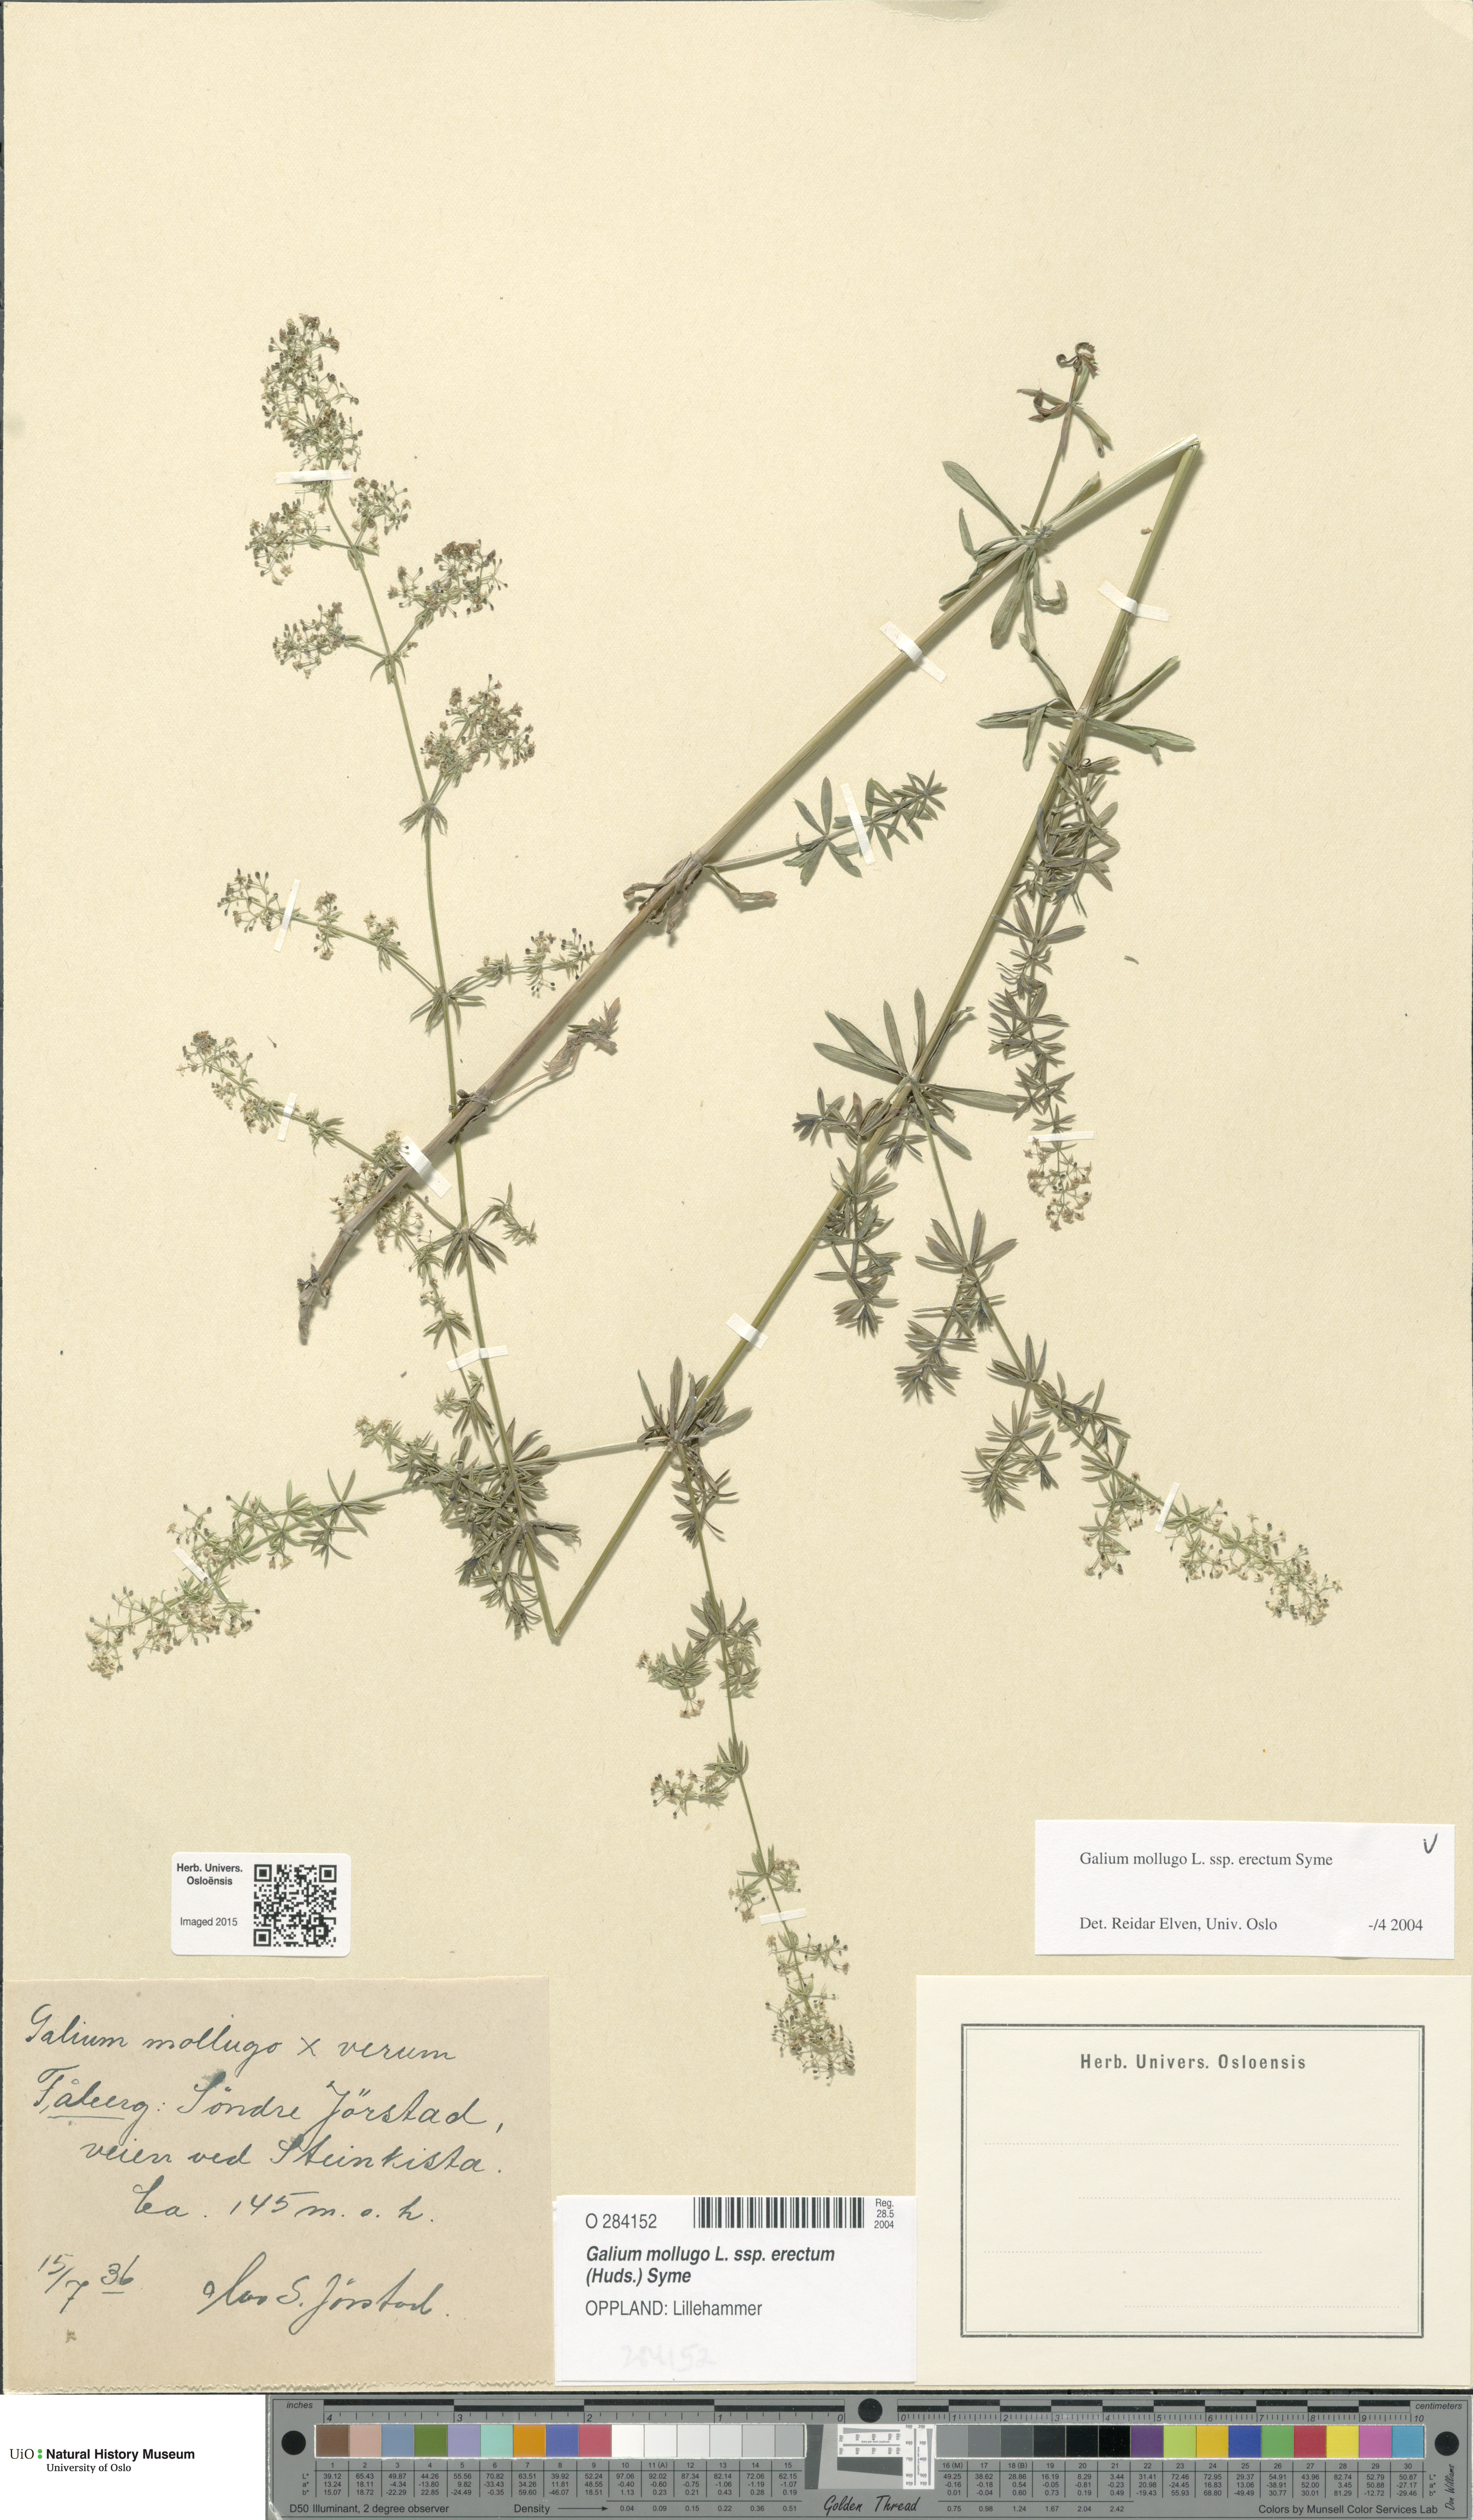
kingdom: Plantae
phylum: Tracheophyta
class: Magnoliopsida
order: Gentianales
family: Rubiaceae
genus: Galium
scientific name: Galium album
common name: White bedstraw
